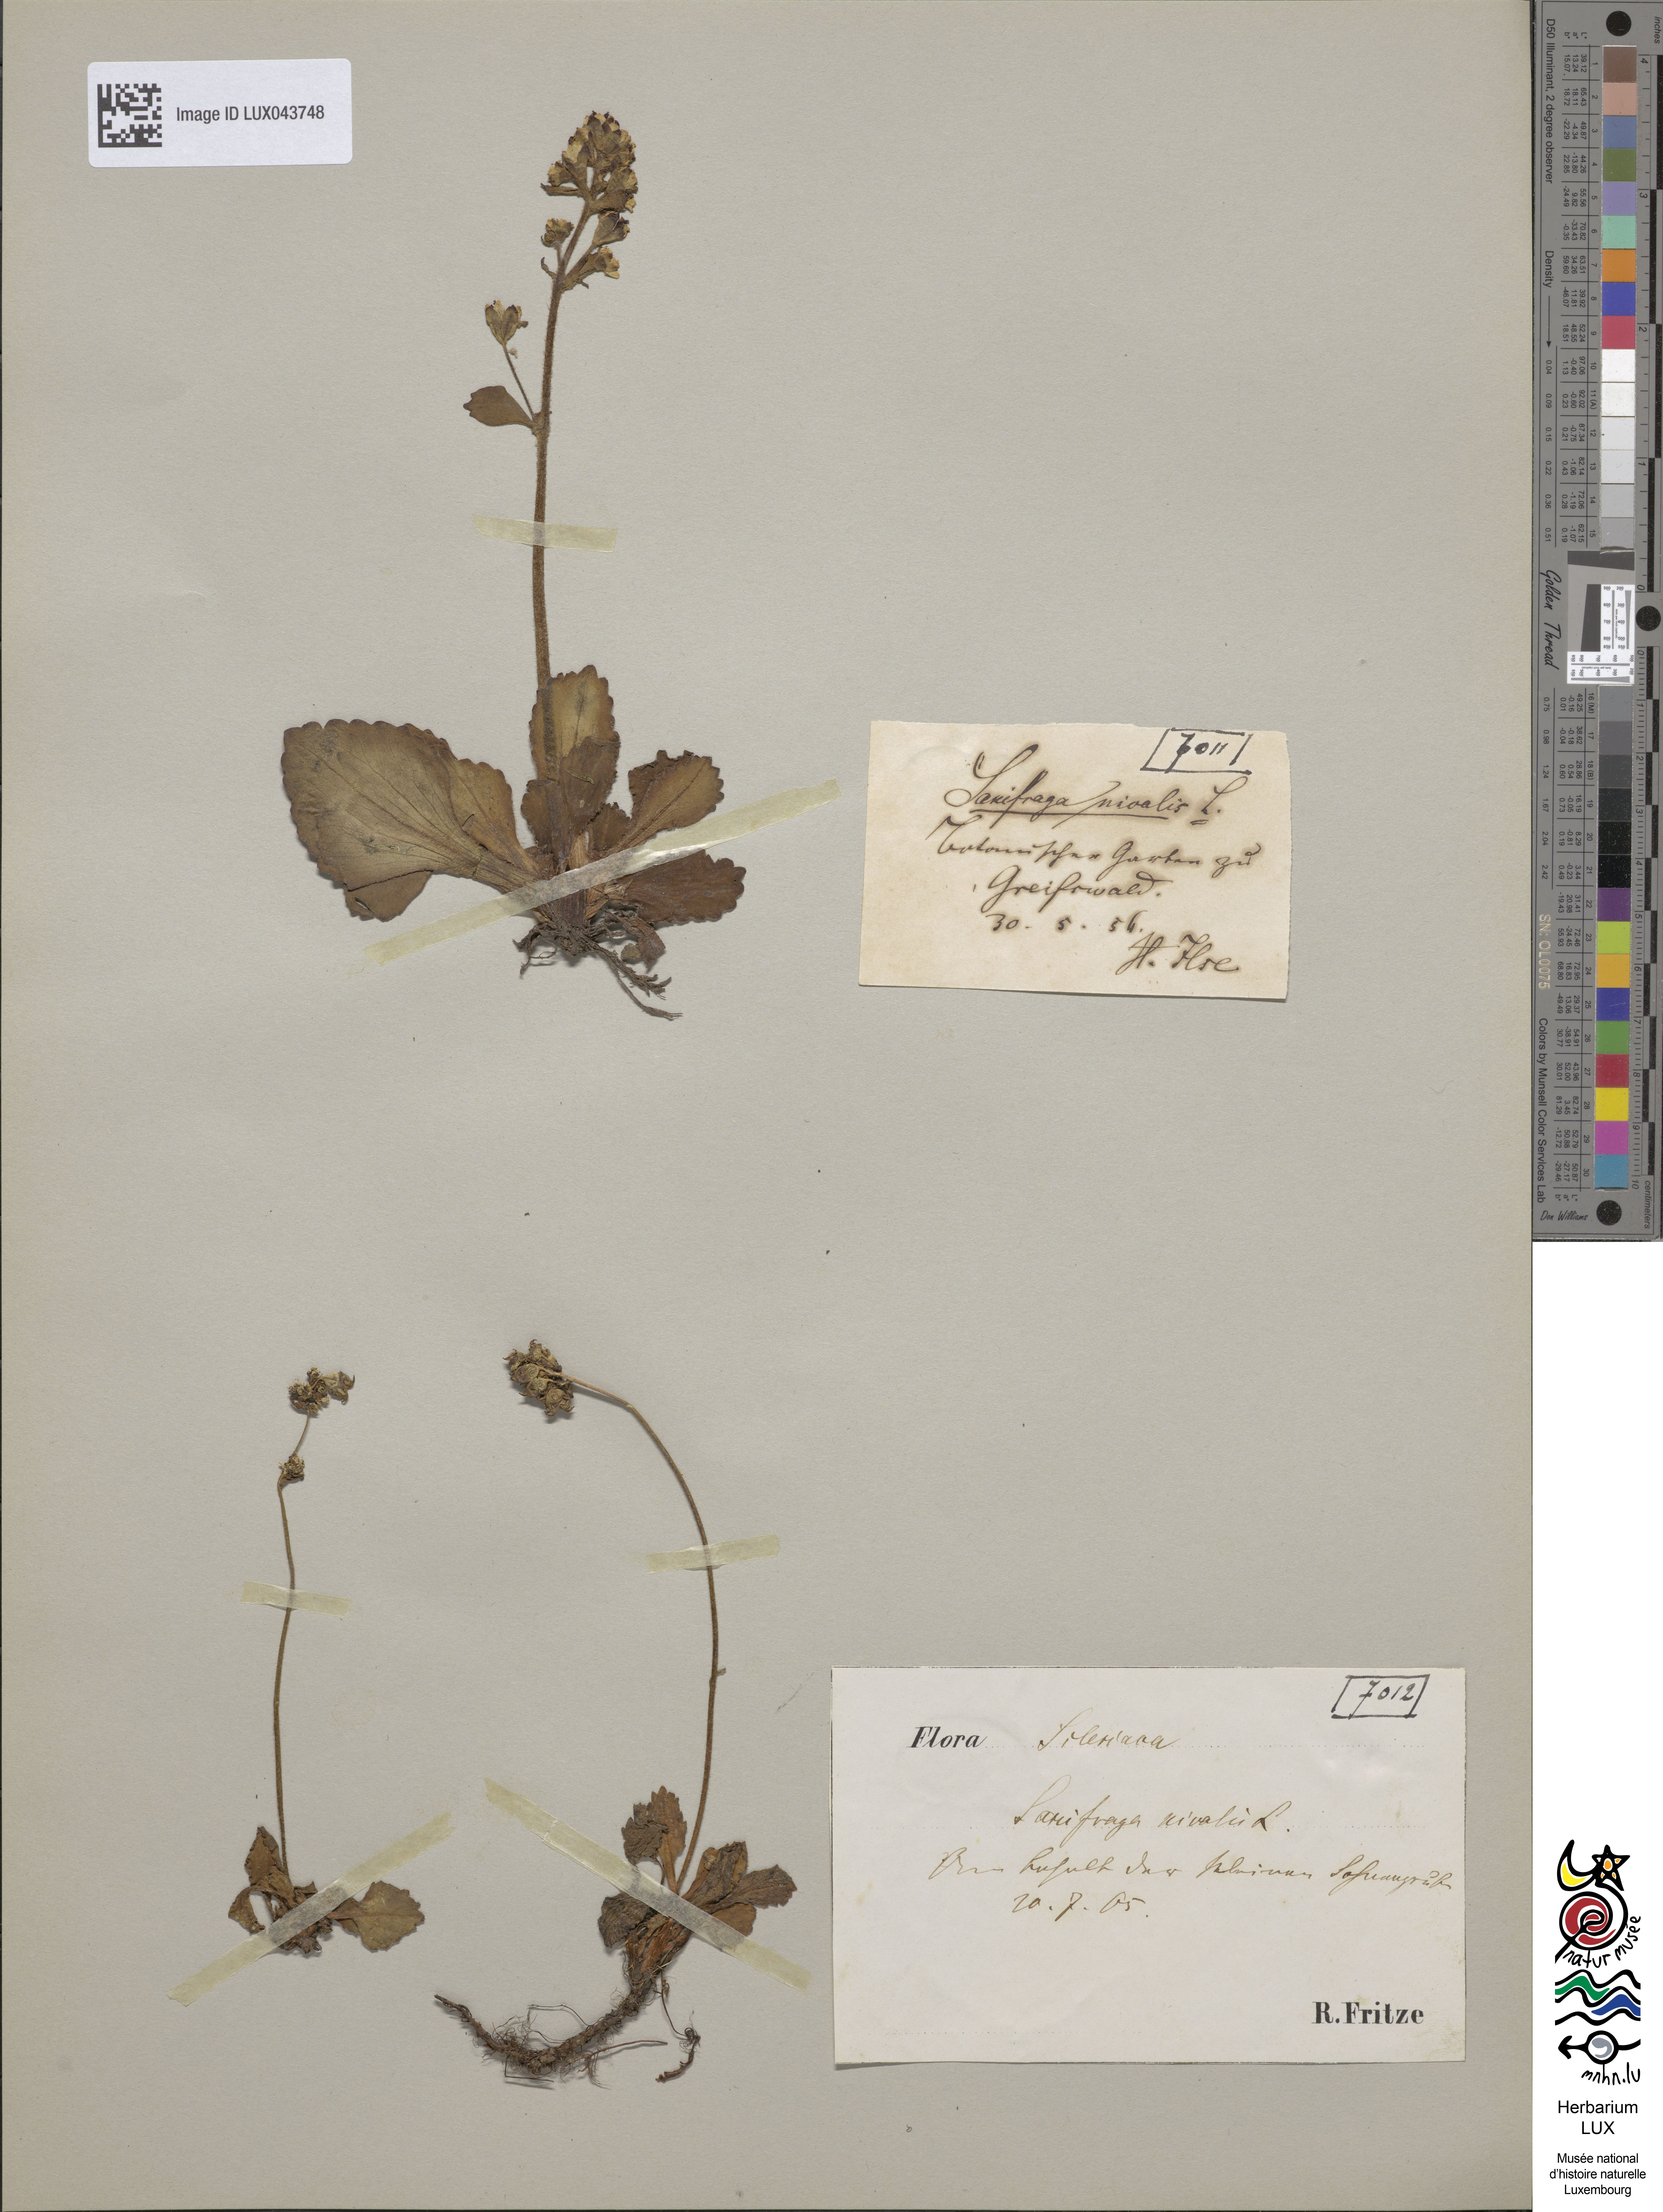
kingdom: Plantae
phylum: Tracheophyta
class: Magnoliopsida
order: Saxifragales
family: Saxifragaceae
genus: Micranthes
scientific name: Micranthes nivalis
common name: Alpine saxifrage
